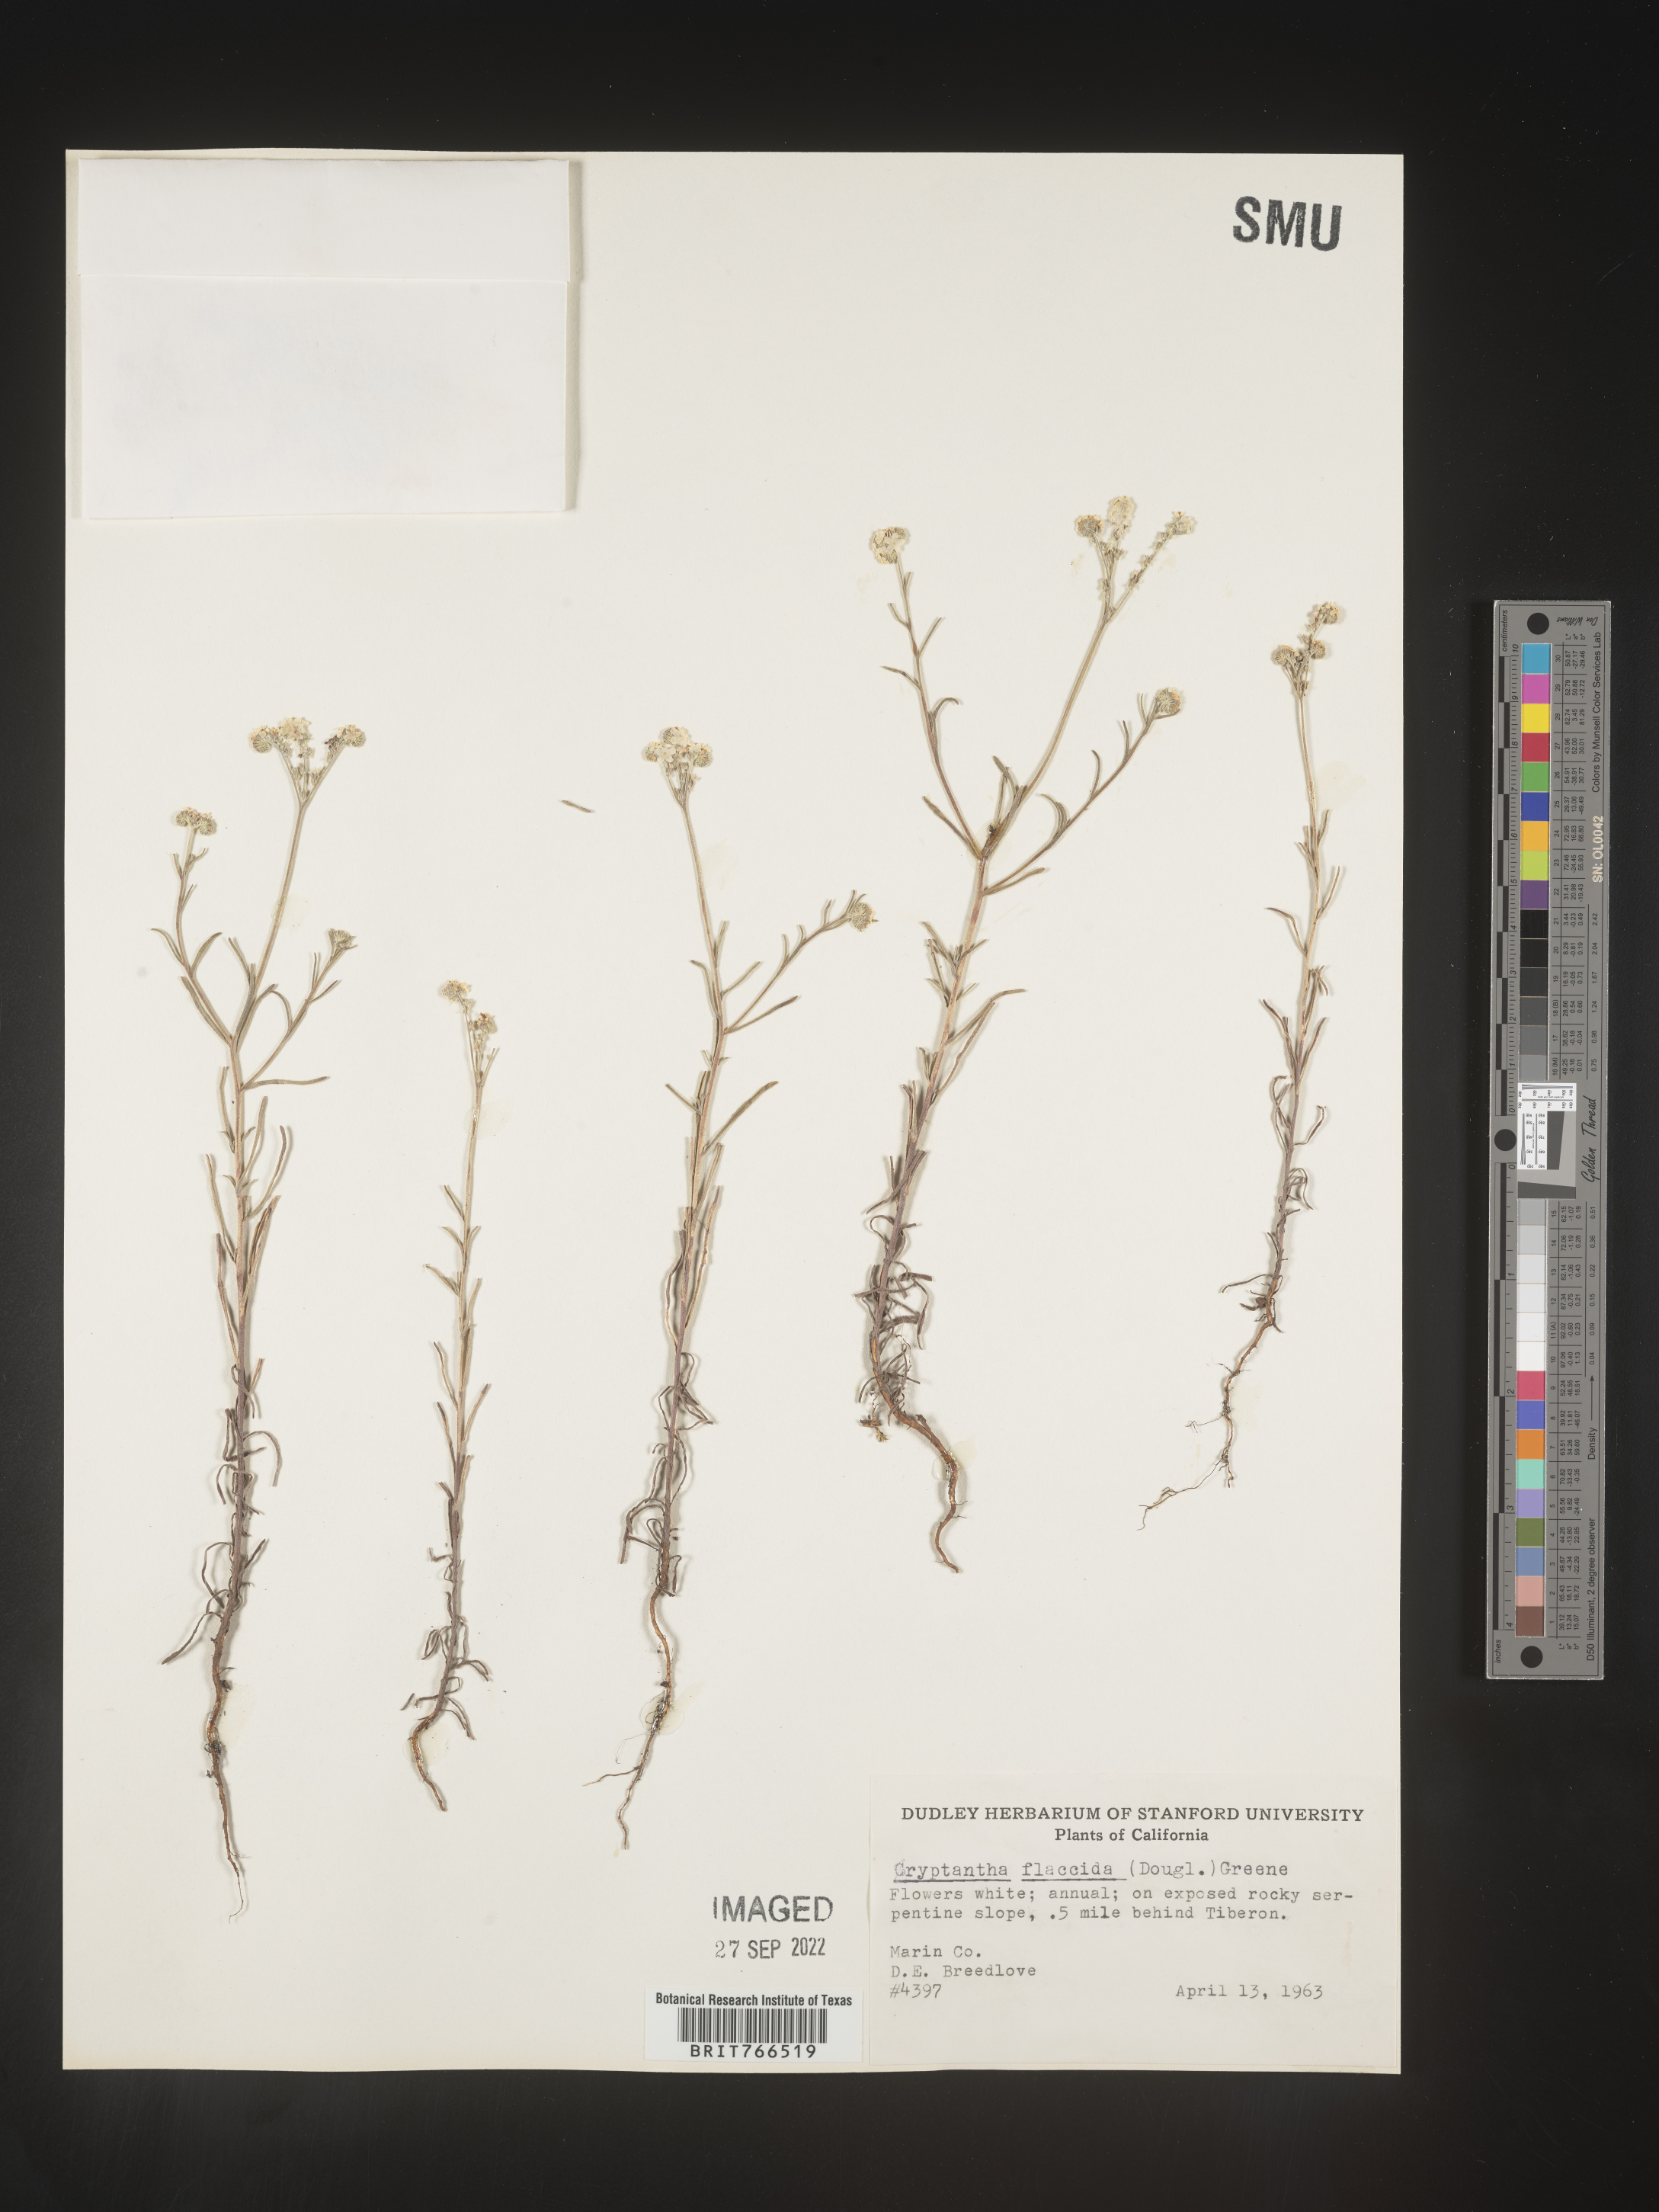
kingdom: Plantae
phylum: Tracheophyta
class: Magnoliopsida
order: Boraginales
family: Boraginaceae
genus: Cryptantha
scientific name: Cryptantha flaccida
